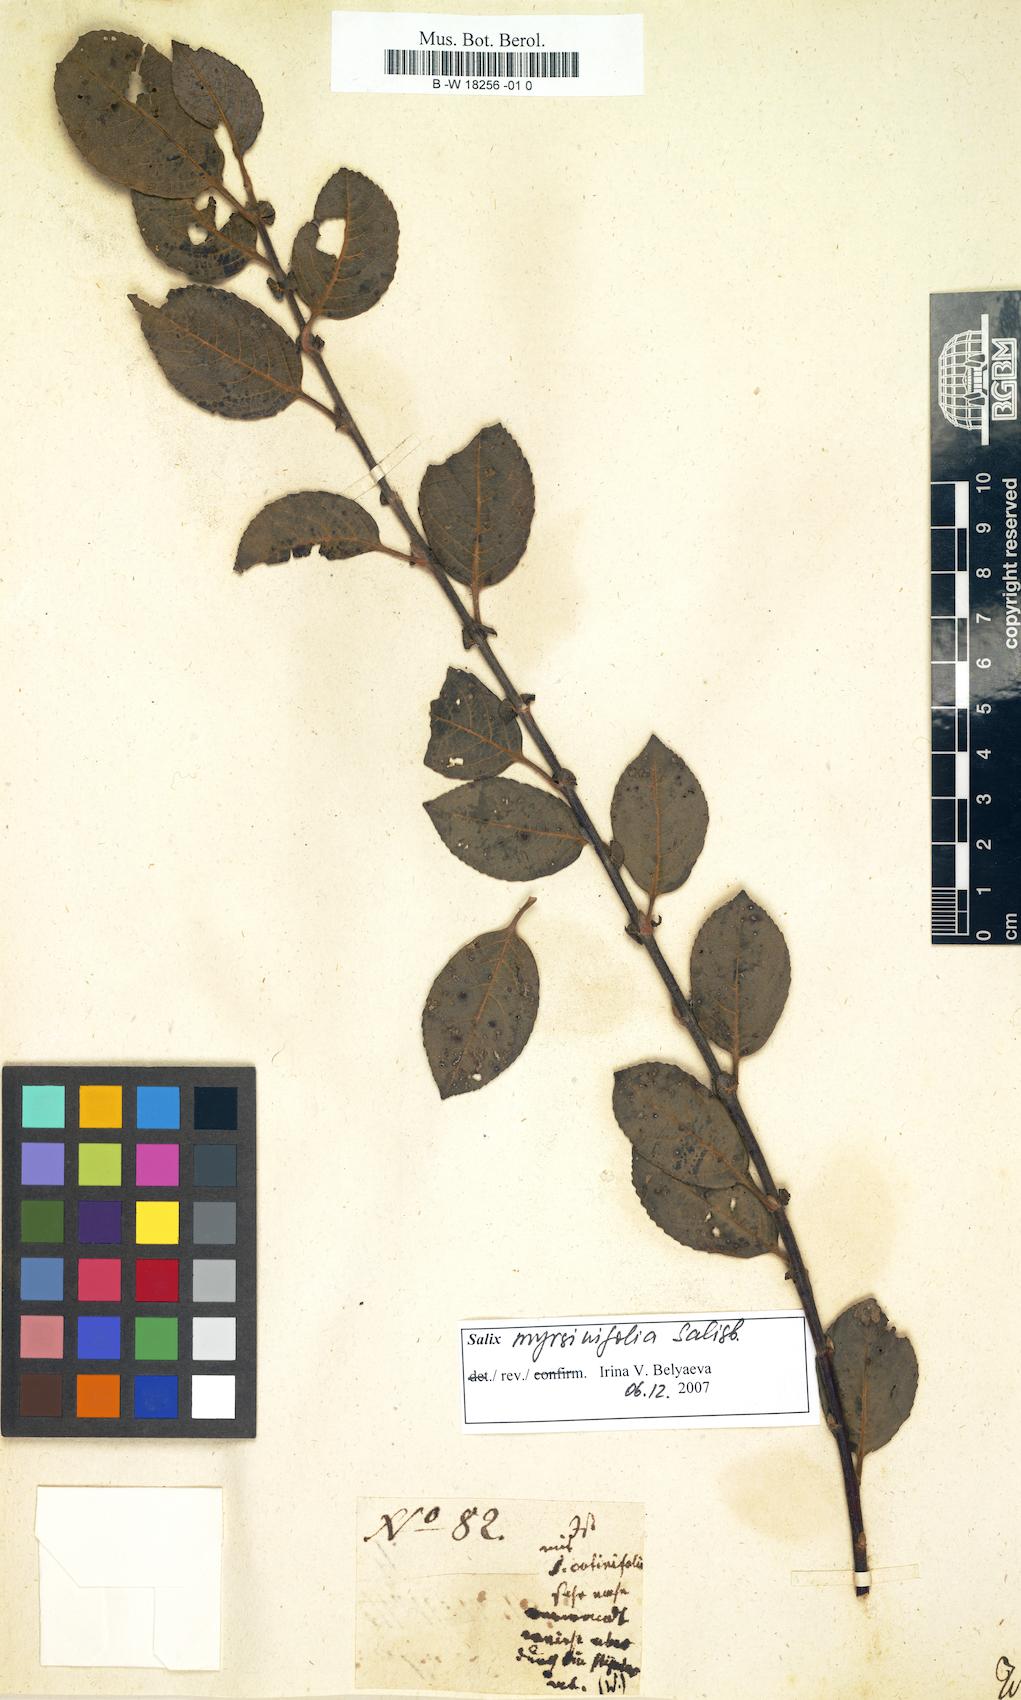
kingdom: Plantae
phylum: Tracheophyta
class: Magnoliopsida
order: Malpighiales
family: Salicaceae
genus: Salix
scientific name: Salix
